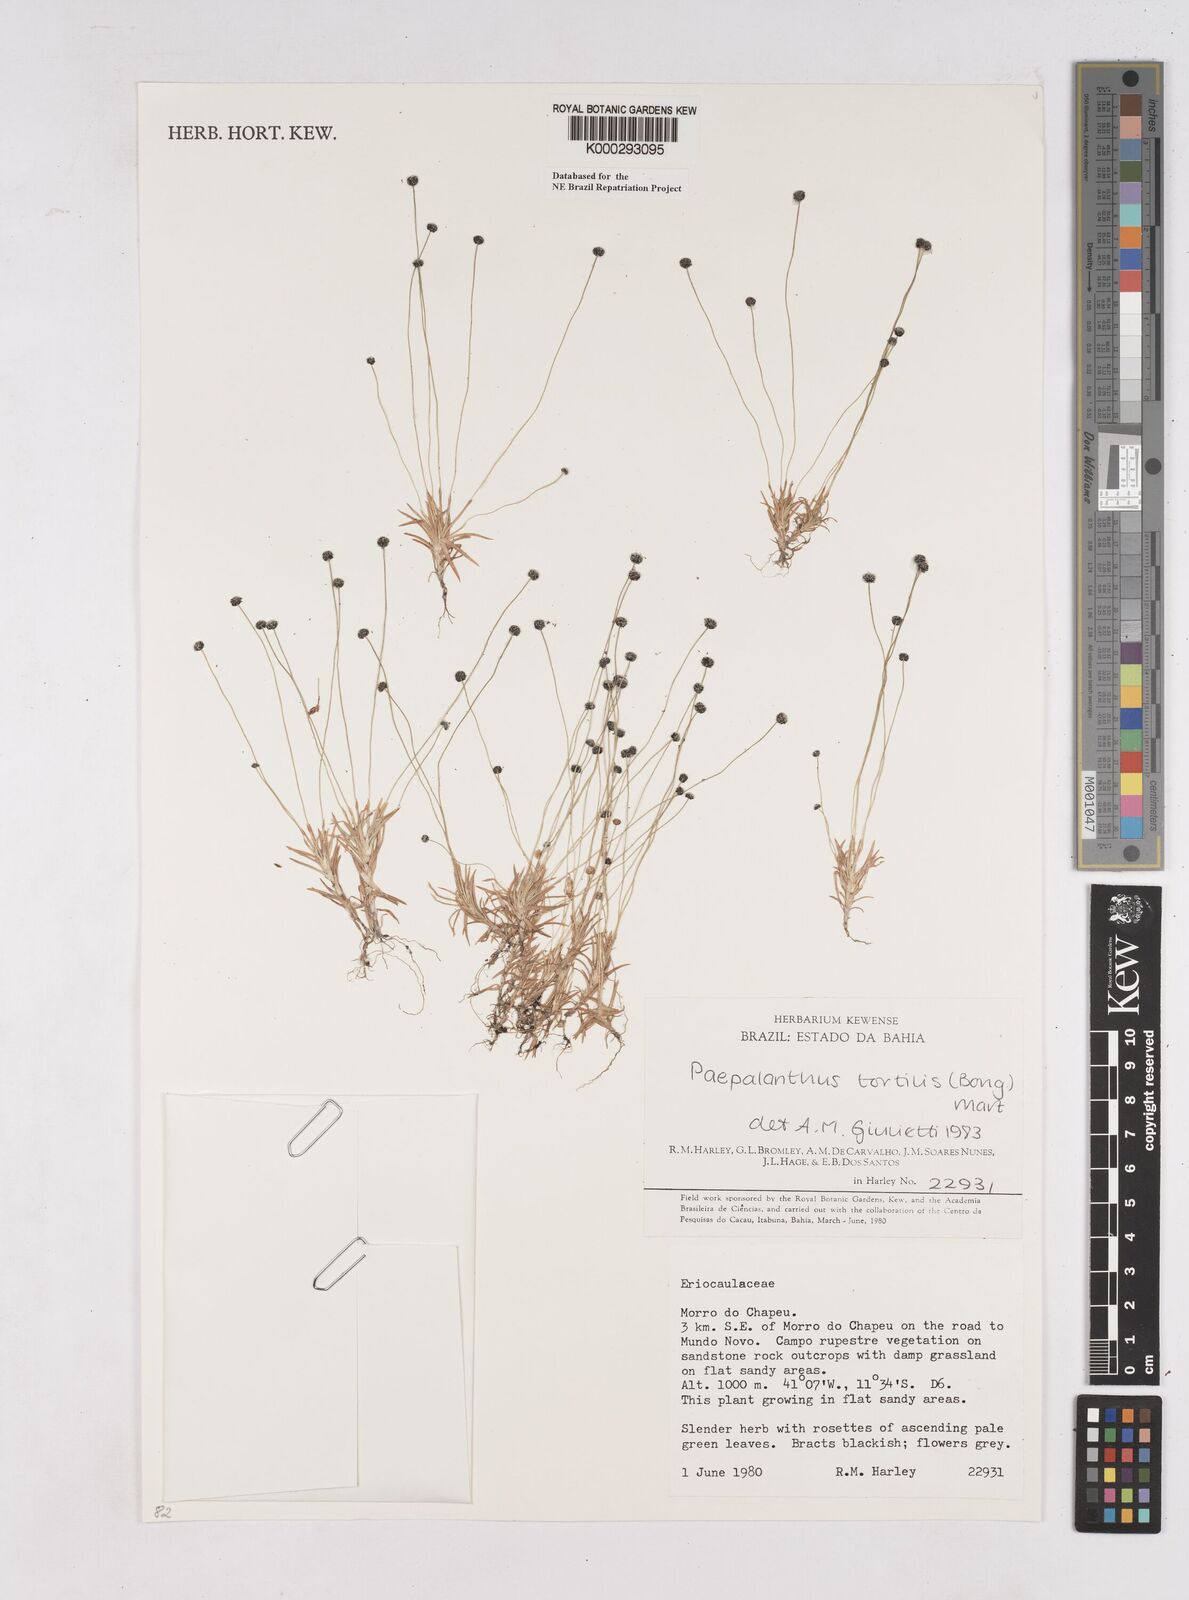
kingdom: Plantae
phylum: Tracheophyta
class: Liliopsida
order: Poales
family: Eriocaulaceae
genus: Paepalanthus
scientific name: Paepalanthus
